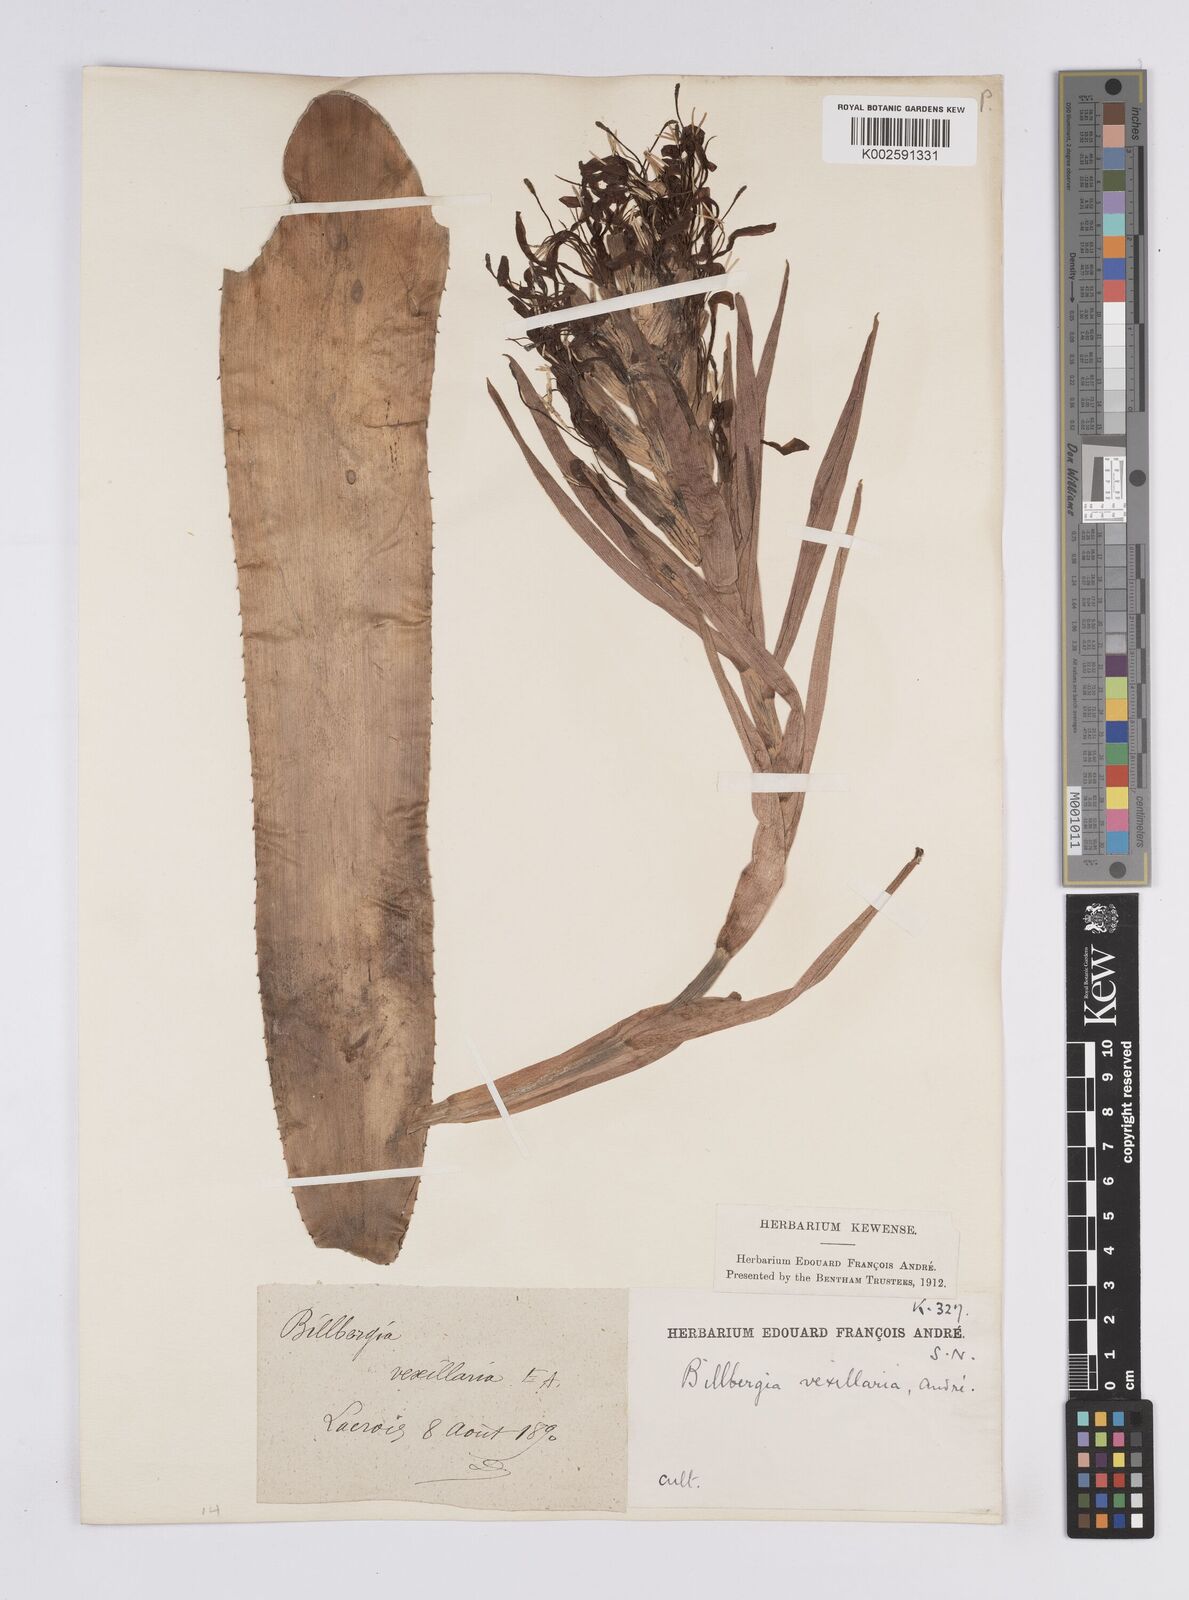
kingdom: Plantae
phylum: Tracheophyta
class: Liliopsida
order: Poales
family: Bromeliaceae
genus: Billbergia
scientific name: Billbergia jenischiana
